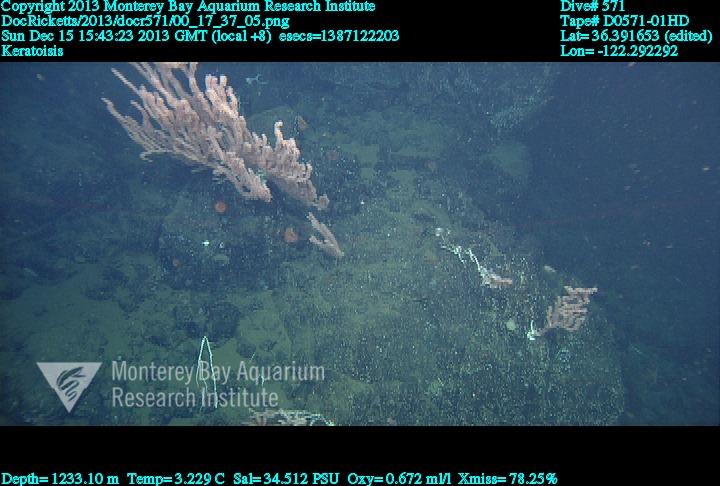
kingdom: Animalia
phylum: Cnidaria
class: Anthozoa
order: Scleralcyonacea
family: Keratoisididae
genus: Keratoisis
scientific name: Keratoisis
